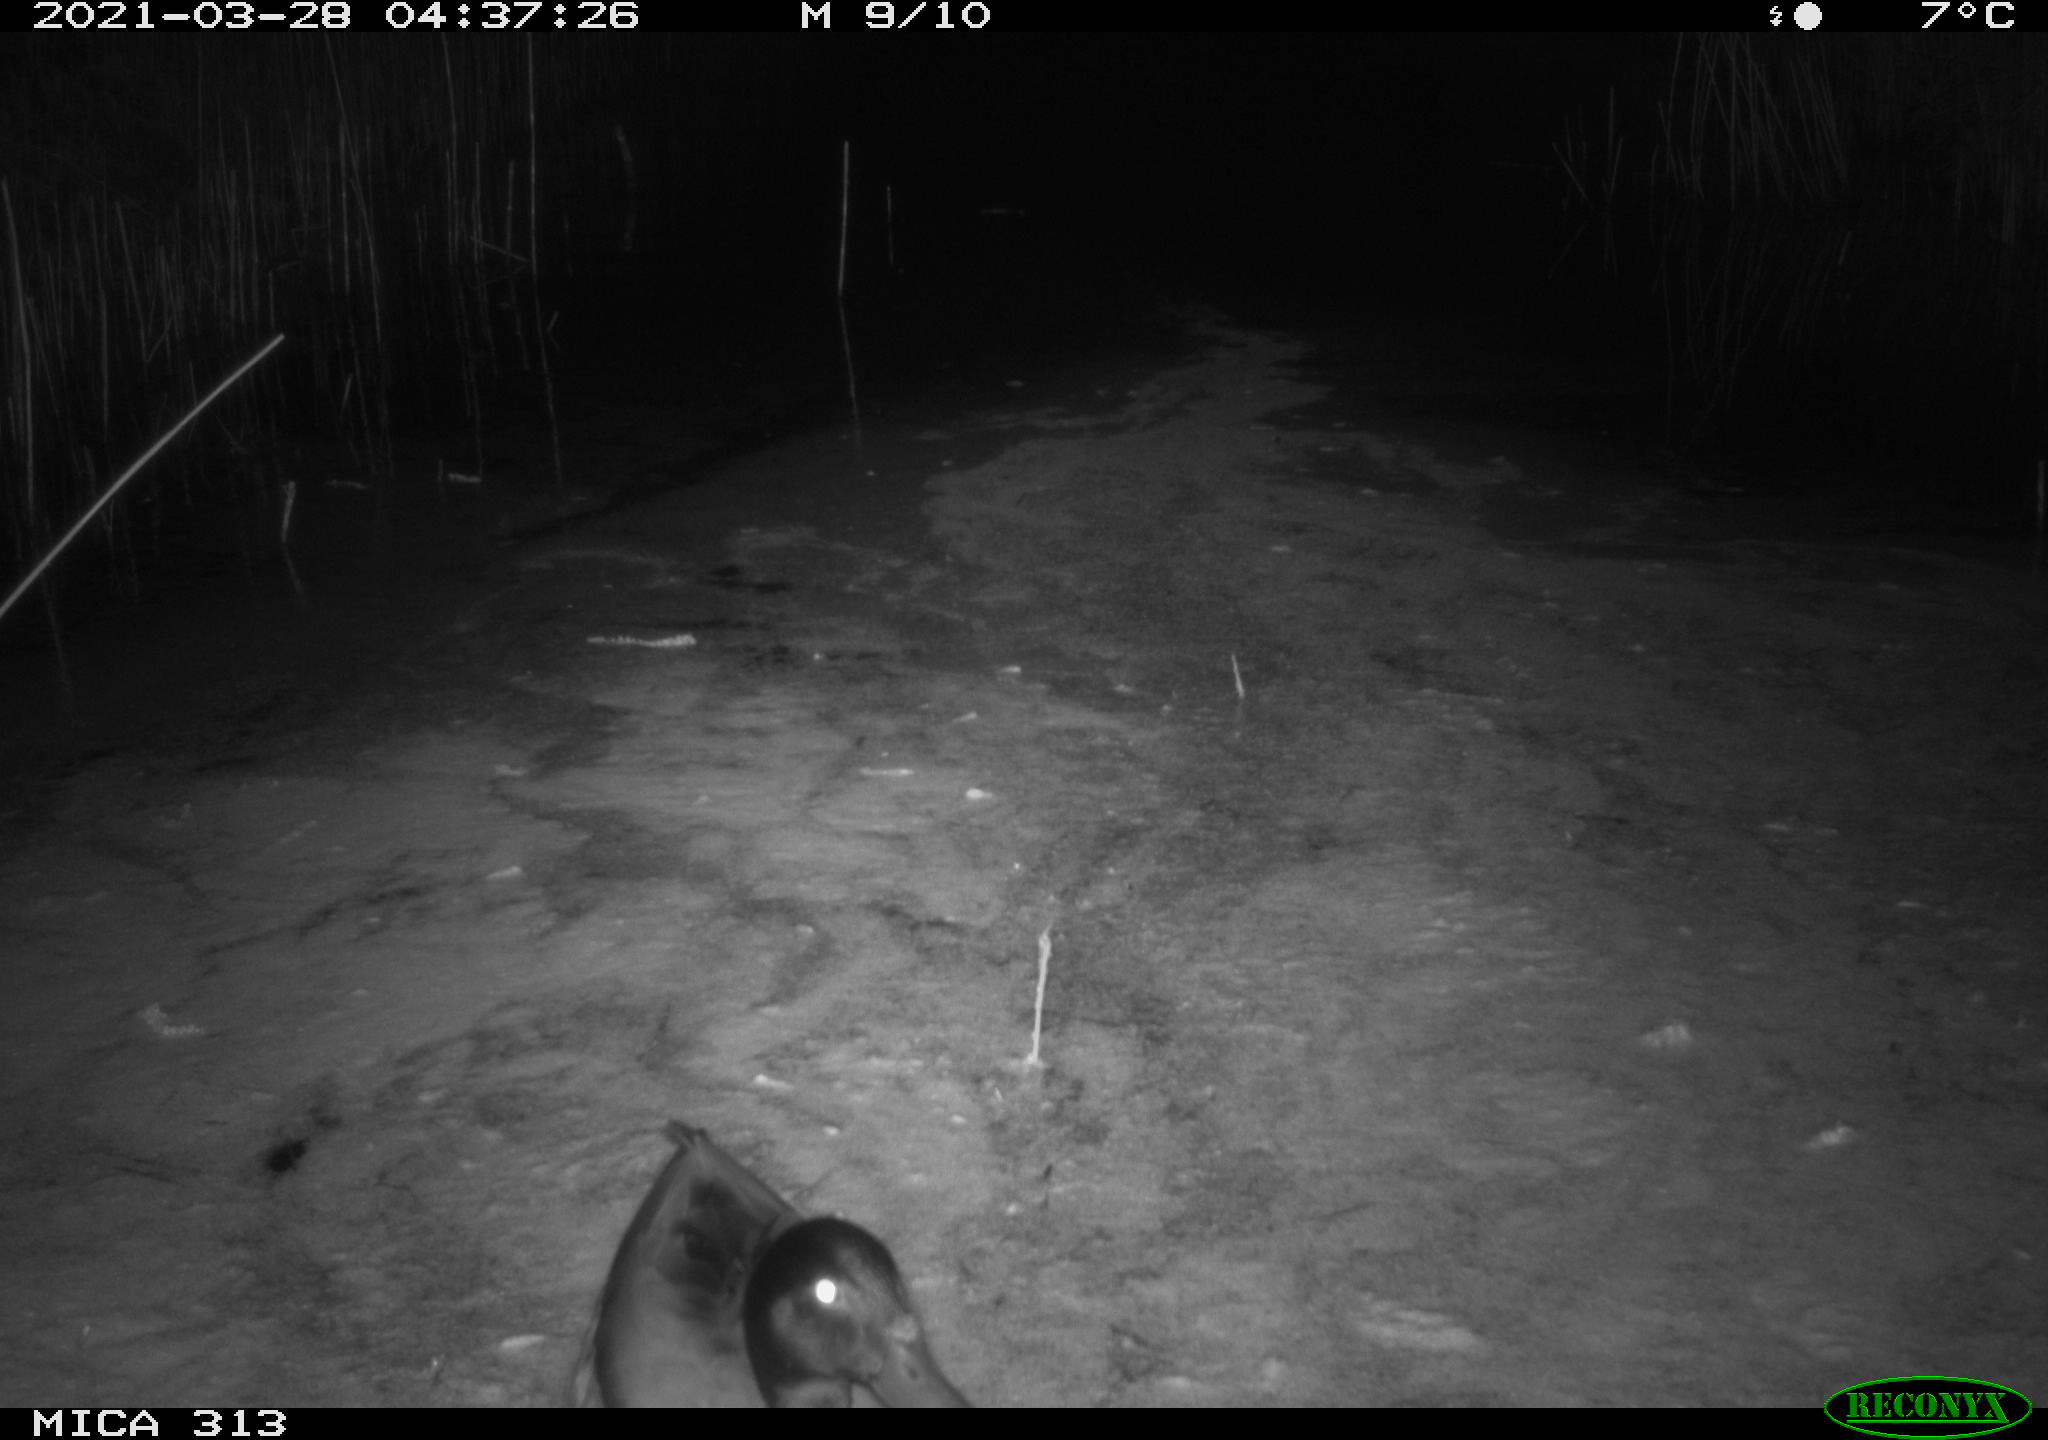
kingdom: Animalia
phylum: Chordata
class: Aves
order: Gruiformes
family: Rallidae
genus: Fulica
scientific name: Fulica atra
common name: Eurasian coot
